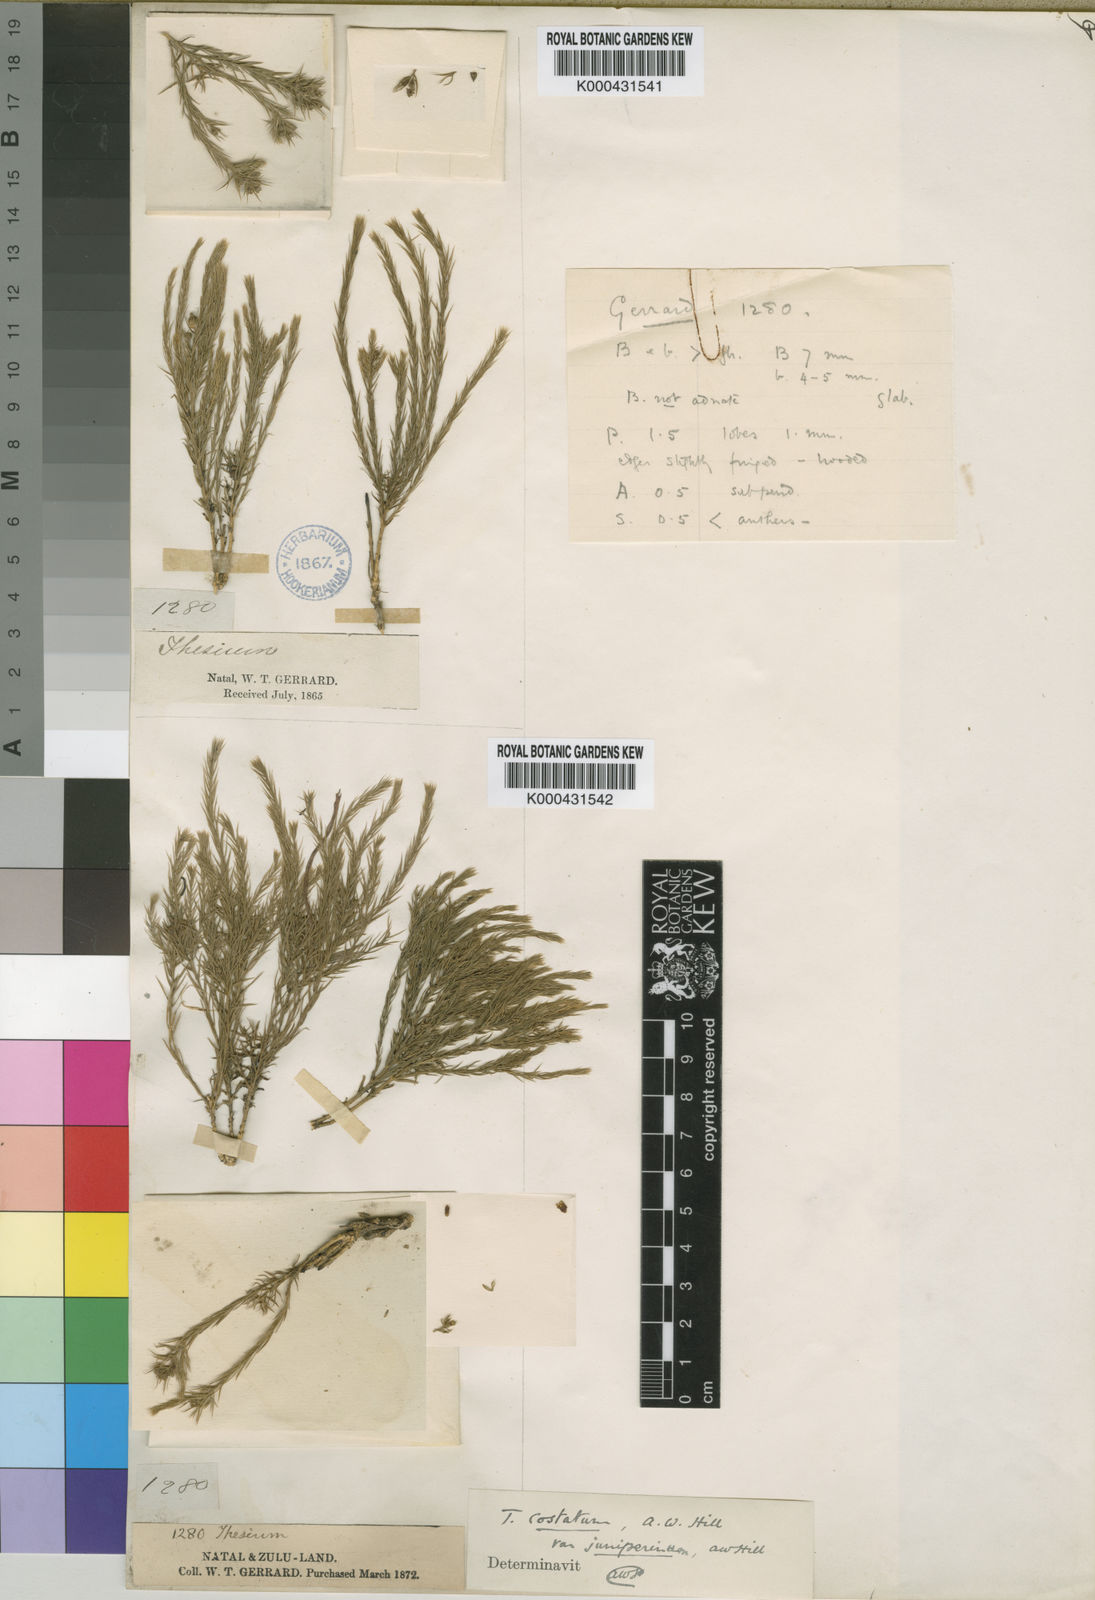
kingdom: Plantae
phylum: Tracheophyta
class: Magnoliopsida
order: Santalales
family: Thesiaceae
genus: Thesium
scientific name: Thesium costatum
